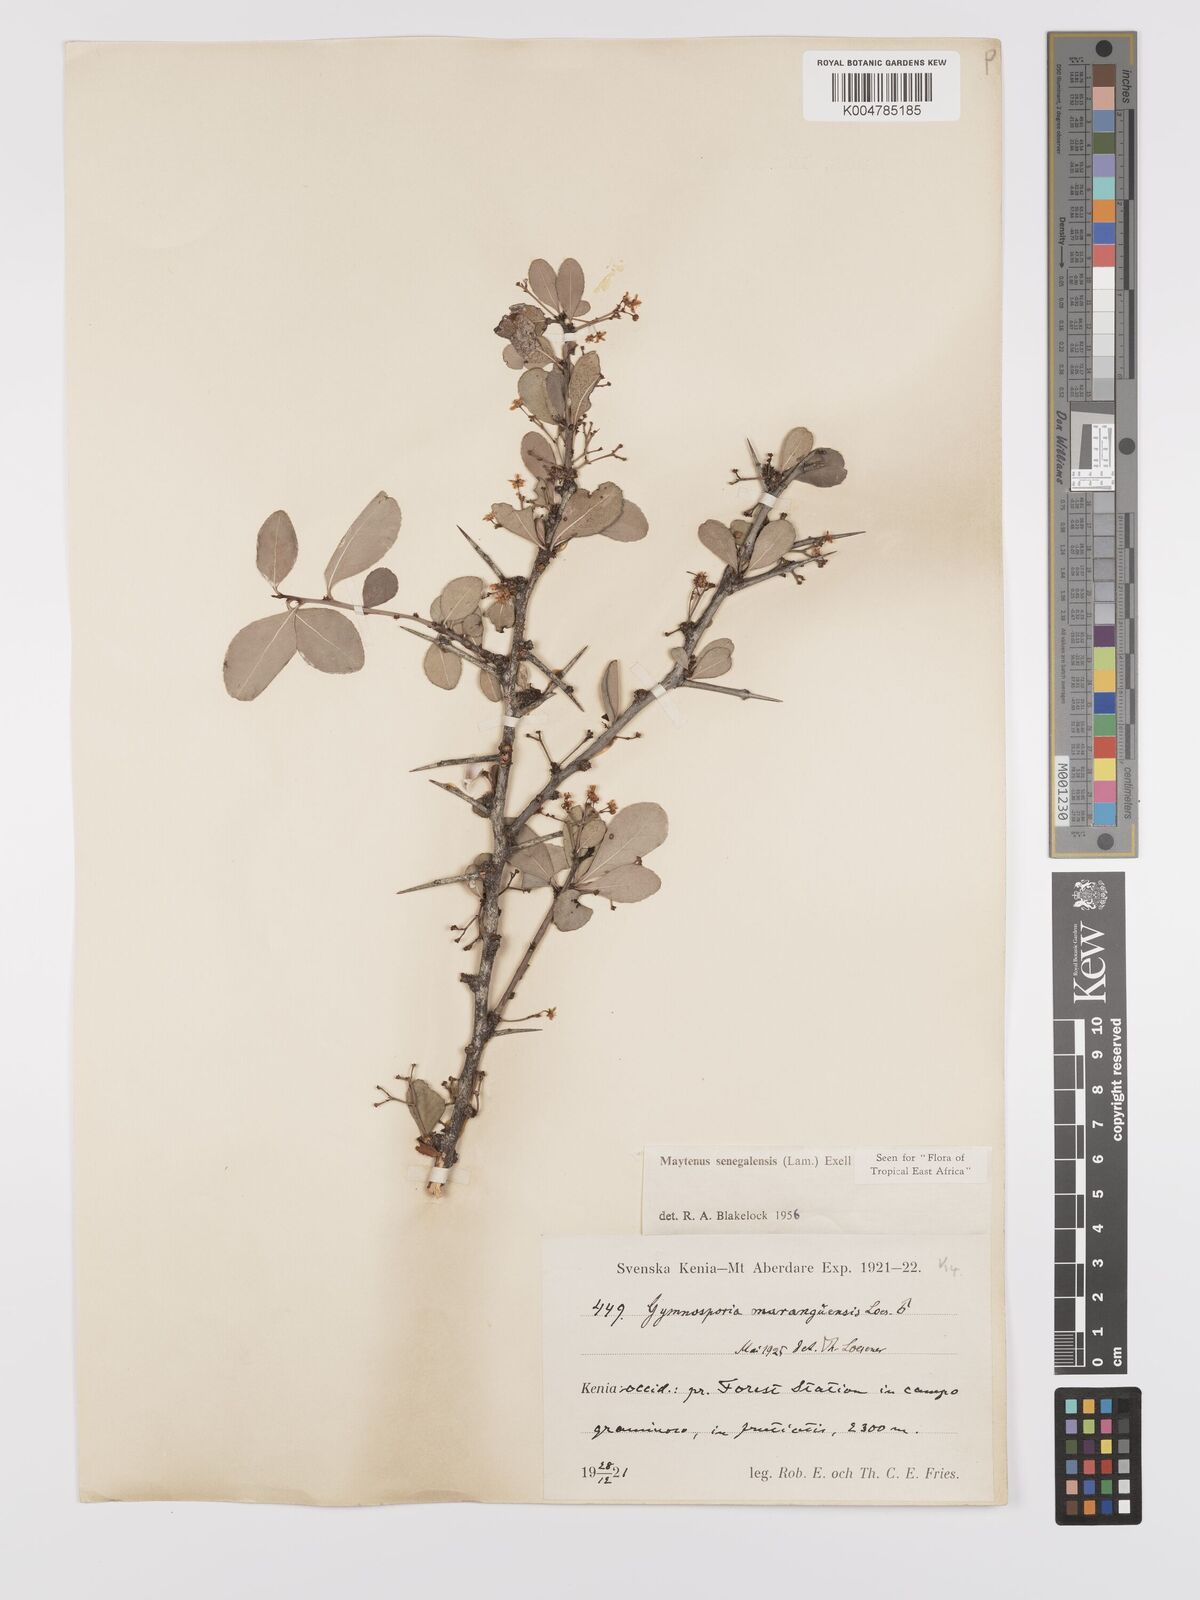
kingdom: Plantae
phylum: Tracheophyta
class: Magnoliopsida
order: Celastrales
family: Celastraceae
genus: Gymnosporia
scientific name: Gymnosporia heterophylla
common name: Angle-stem spikethorn
